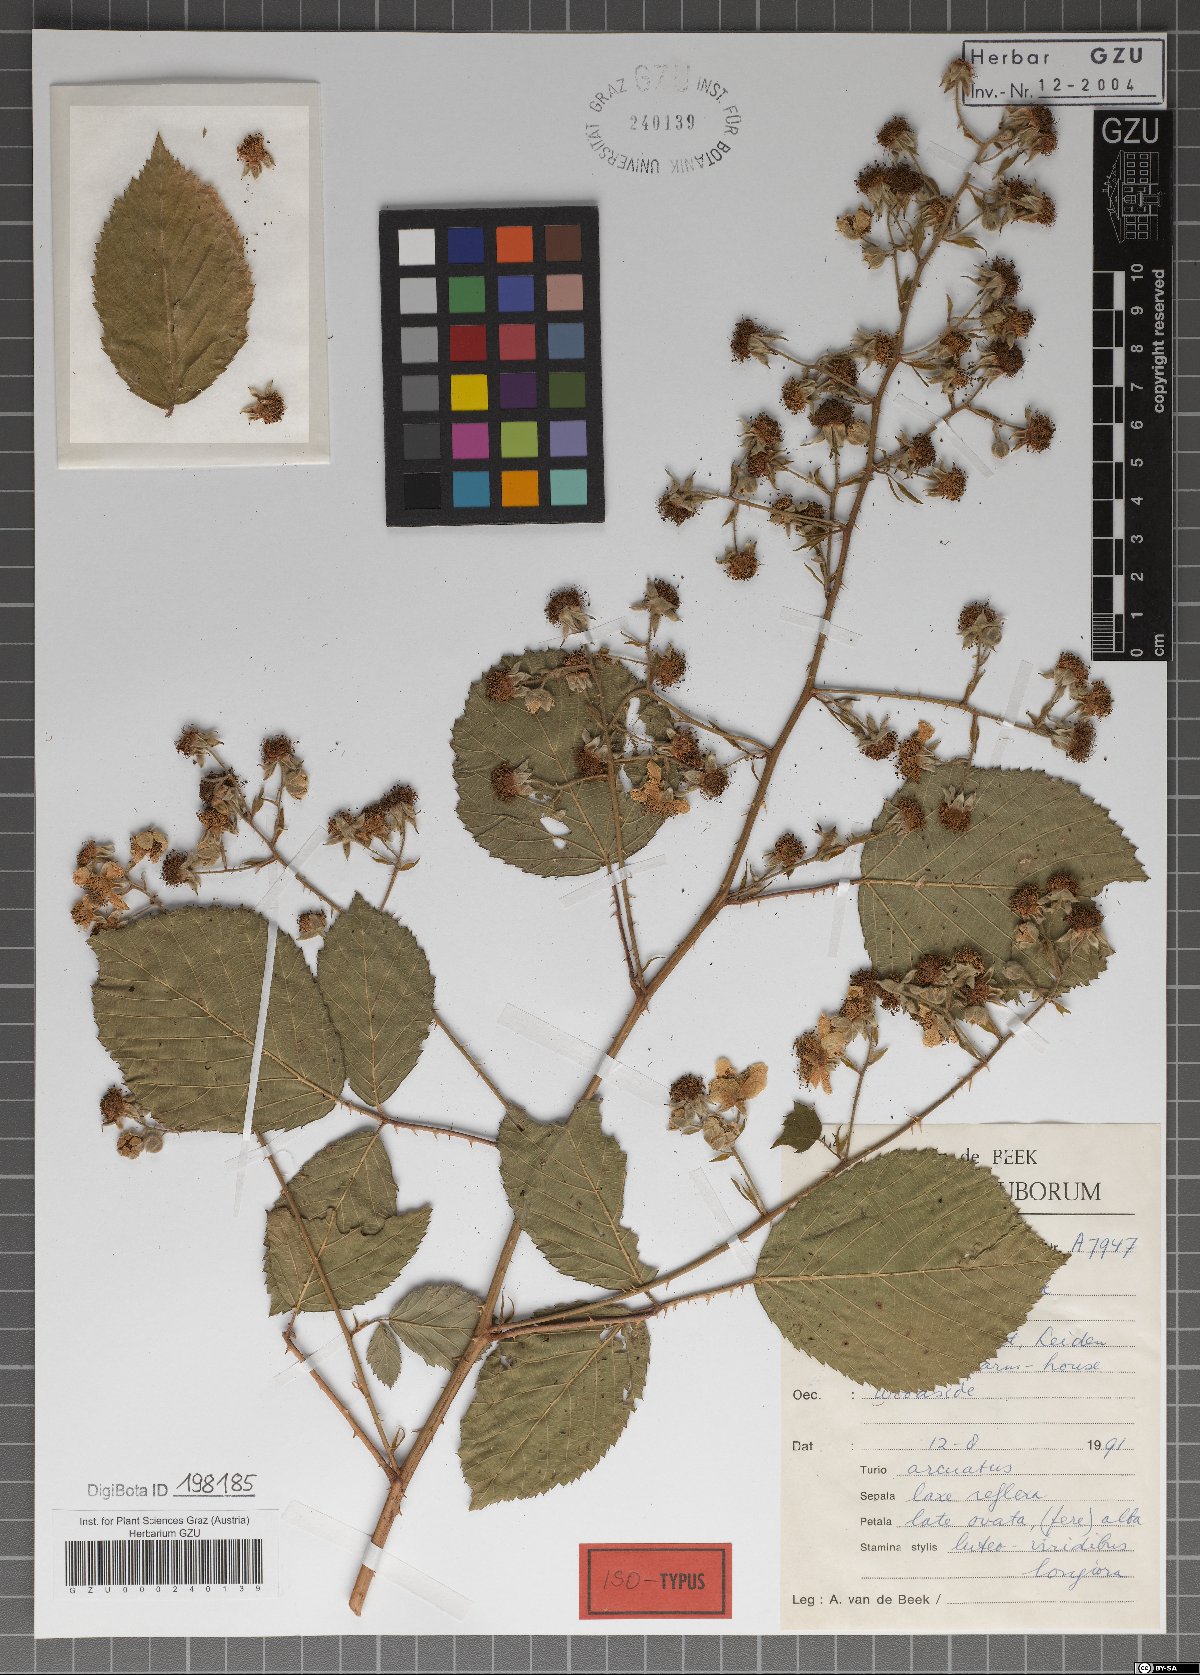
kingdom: Plantae
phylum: Tracheophyta
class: Magnoliopsida
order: Rosales
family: Rosaceae
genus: Rubus
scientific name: Rubus ceratifolius
